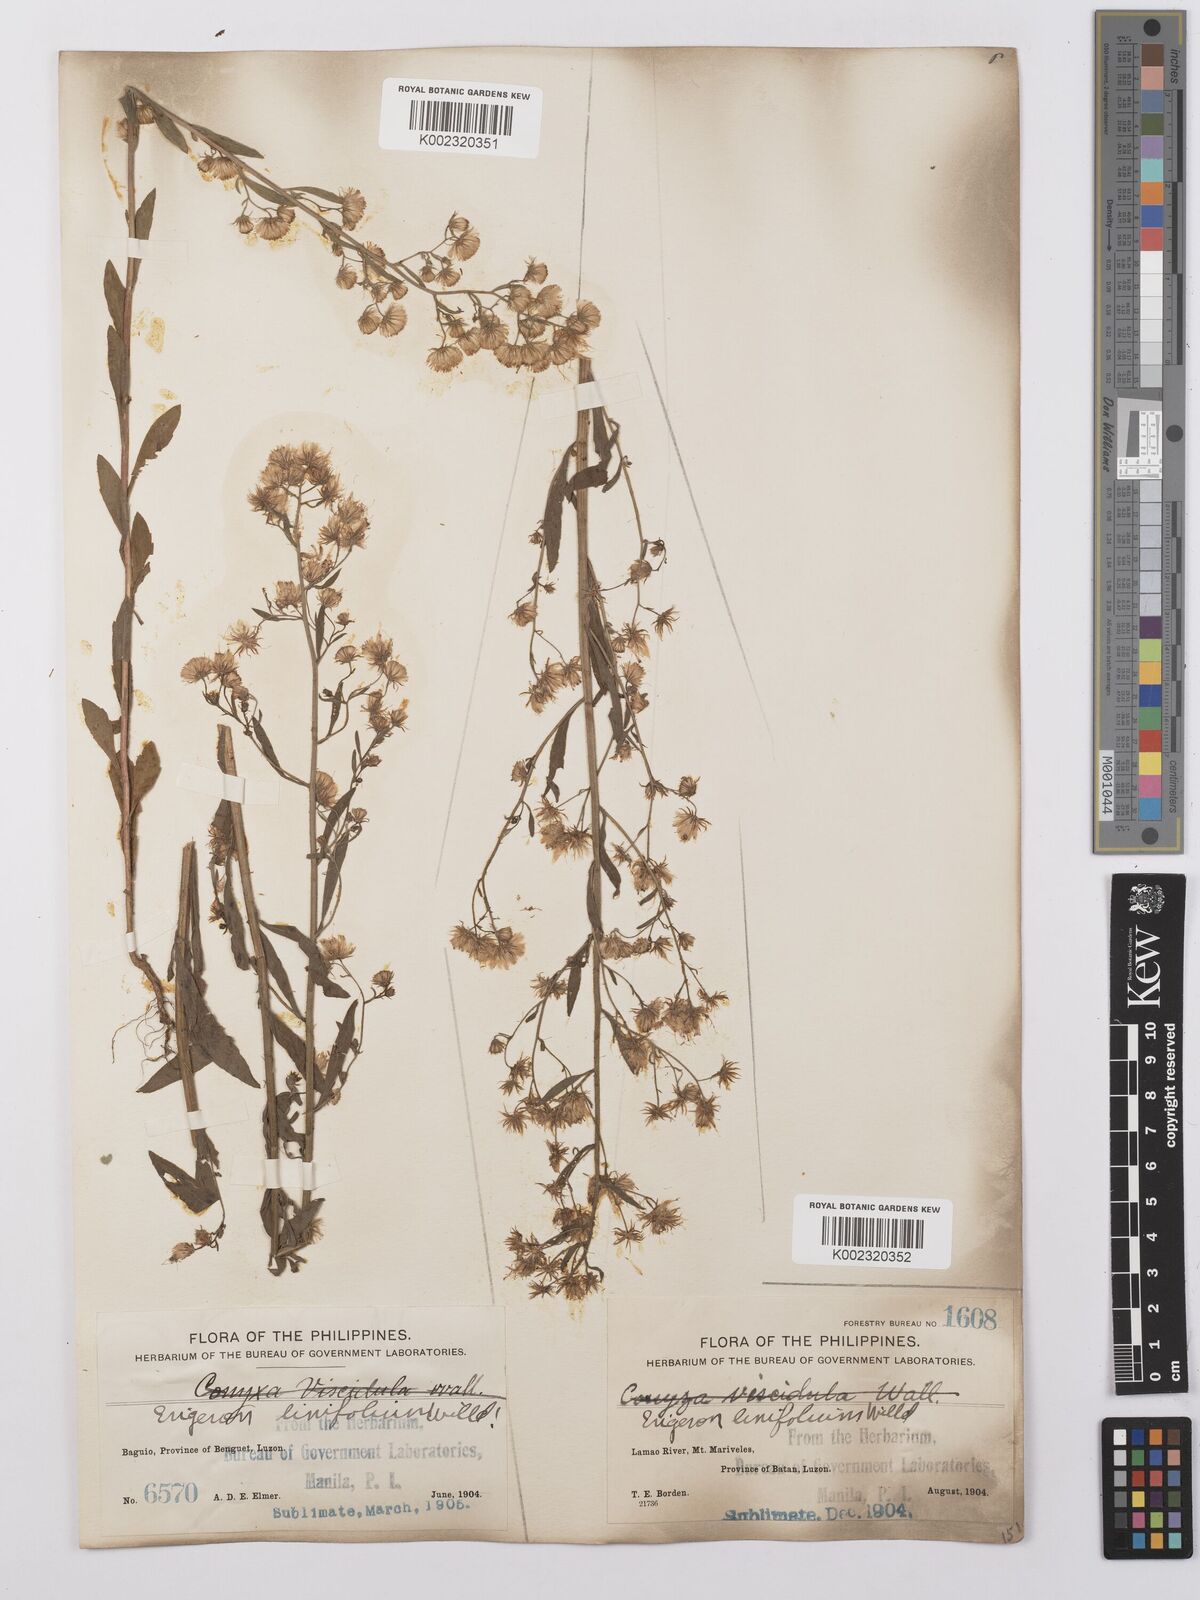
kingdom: Plantae
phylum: Tracheophyta
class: Magnoliopsida
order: Asterales
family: Asteraceae
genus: Erigeron
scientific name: Erigeron sumatrensis
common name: Daisy
